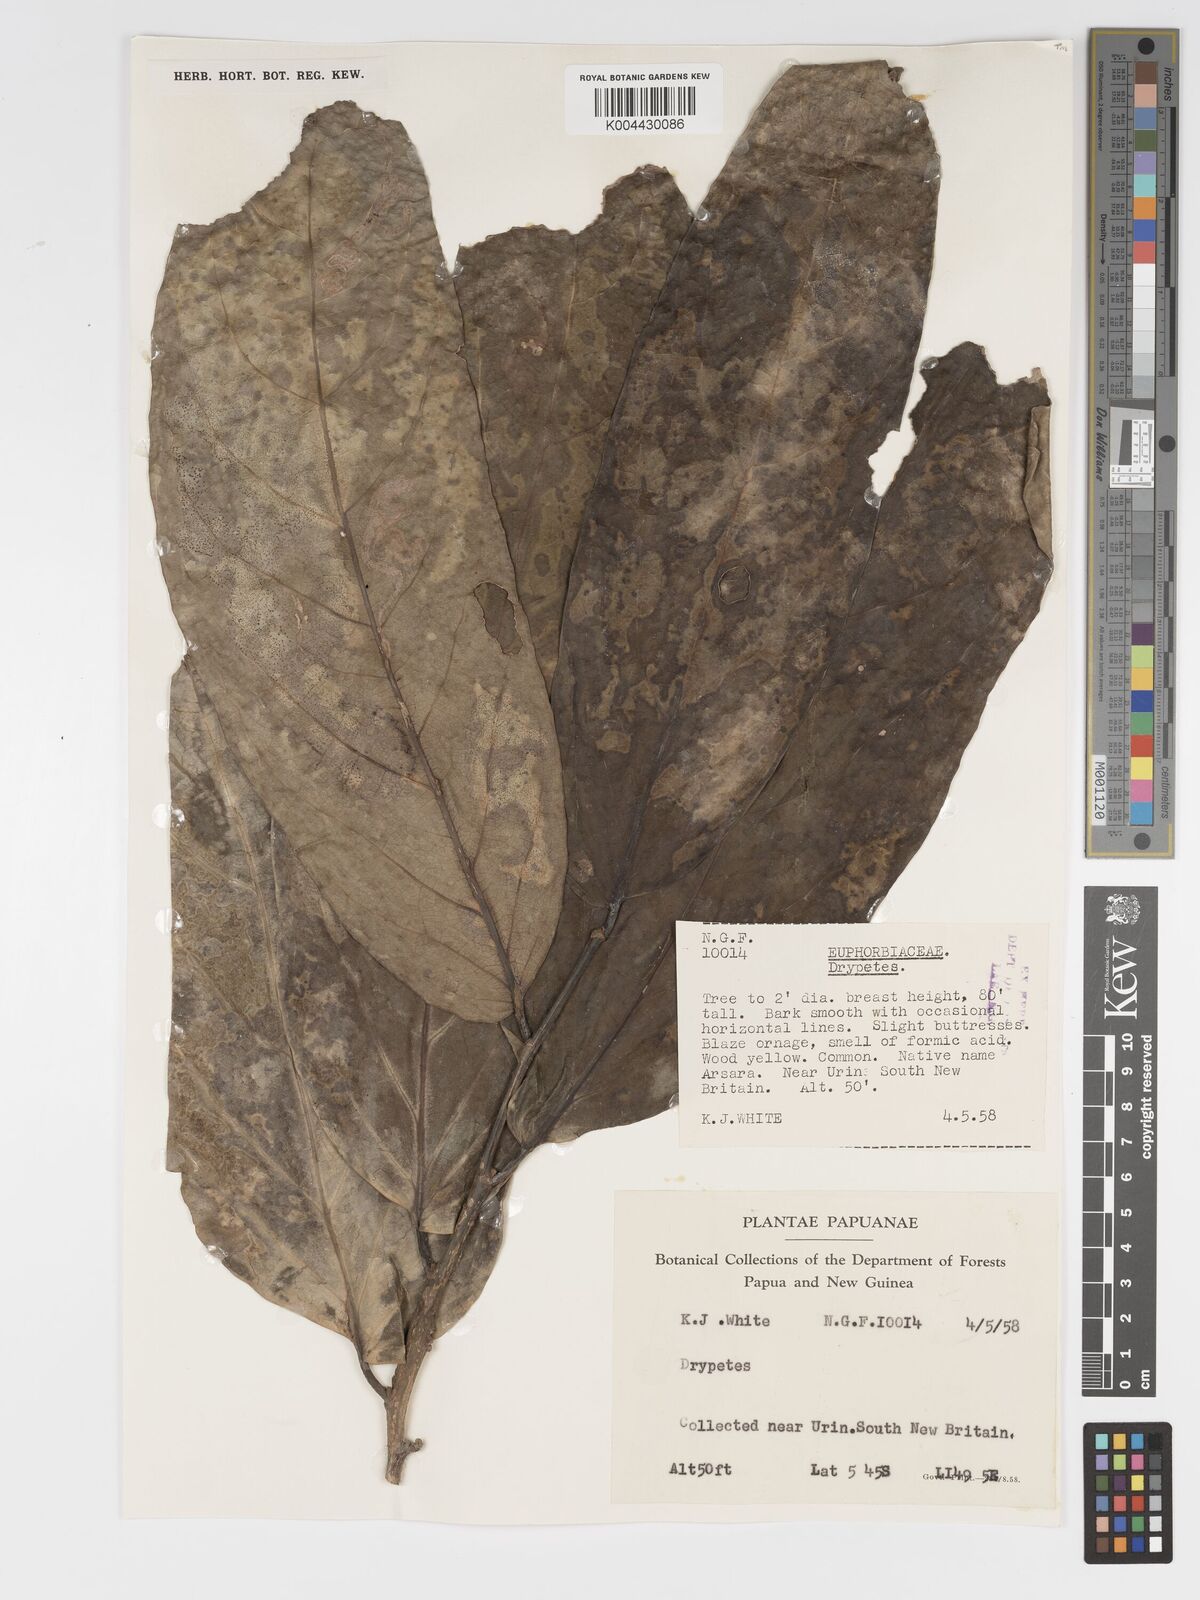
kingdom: Plantae
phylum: Tracheophyta
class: Magnoliopsida
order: Malpighiales
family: Putranjivaceae
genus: Drypetes
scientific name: Drypetes longifolia
